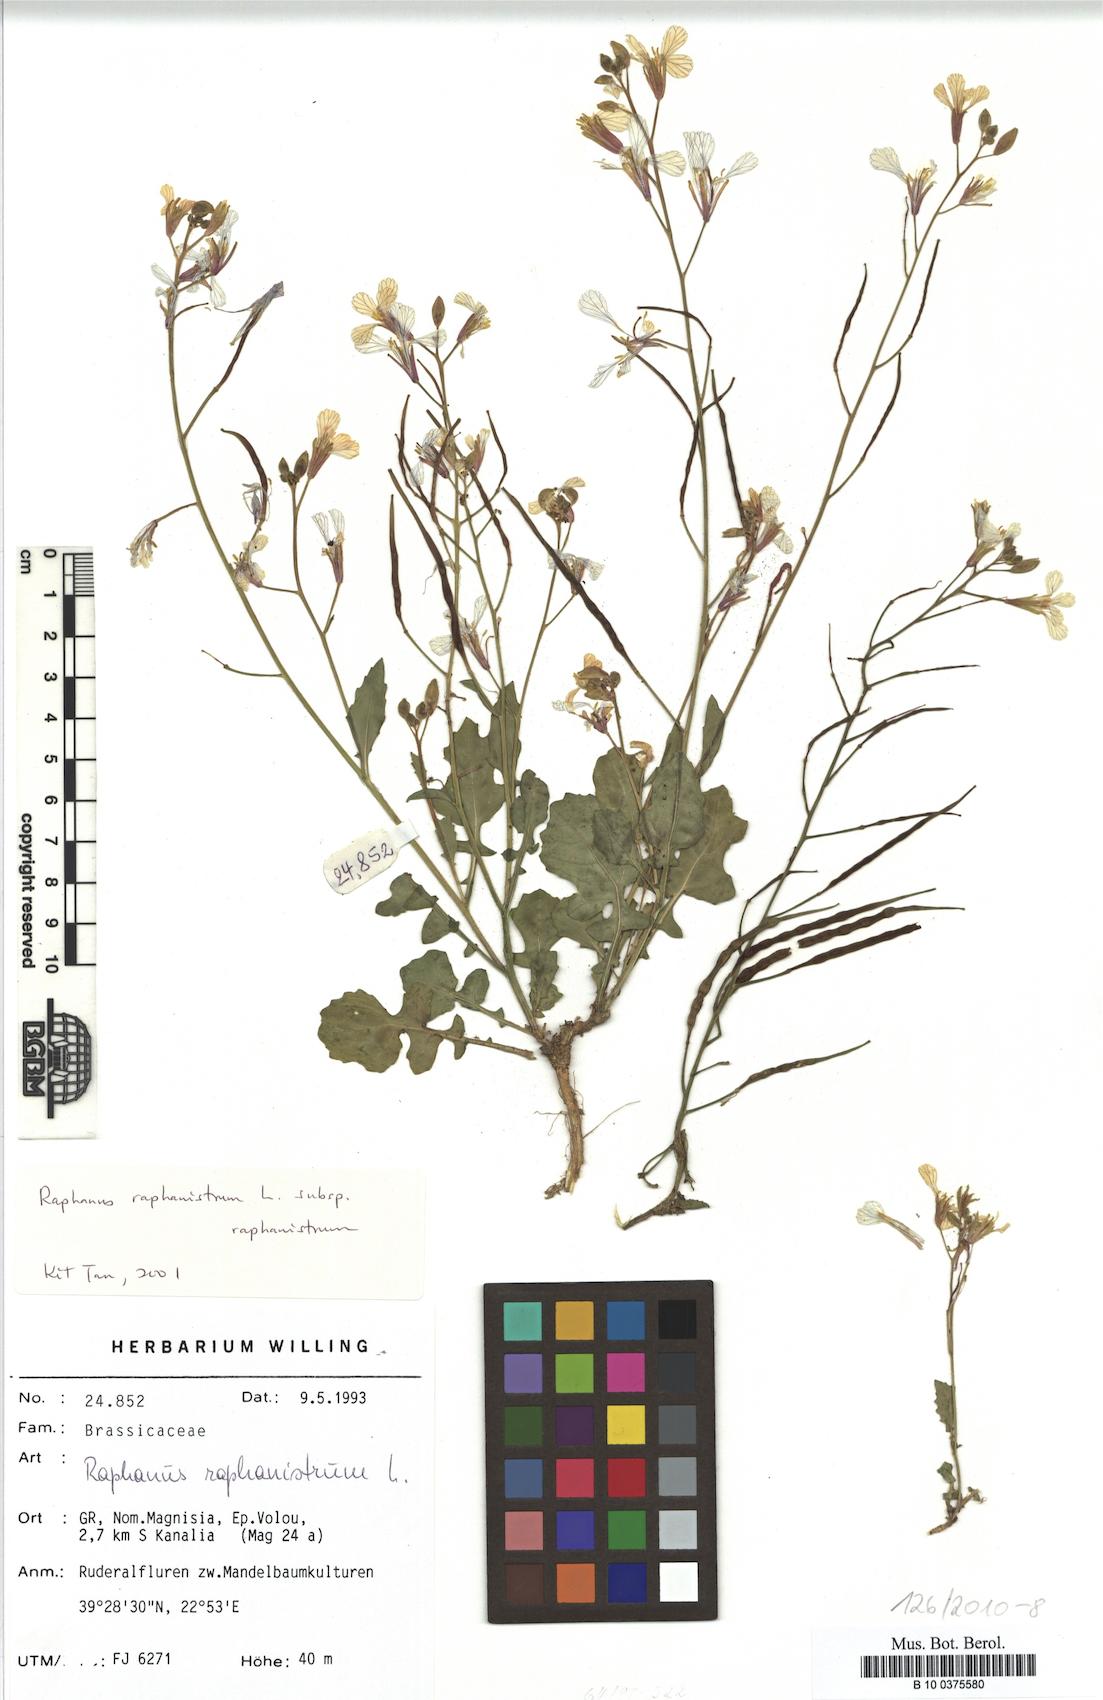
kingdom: Plantae
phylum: Tracheophyta
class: Magnoliopsida
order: Brassicales
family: Brassicaceae
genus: Raphanus
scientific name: Raphanus raphanistrum
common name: Wild radish
